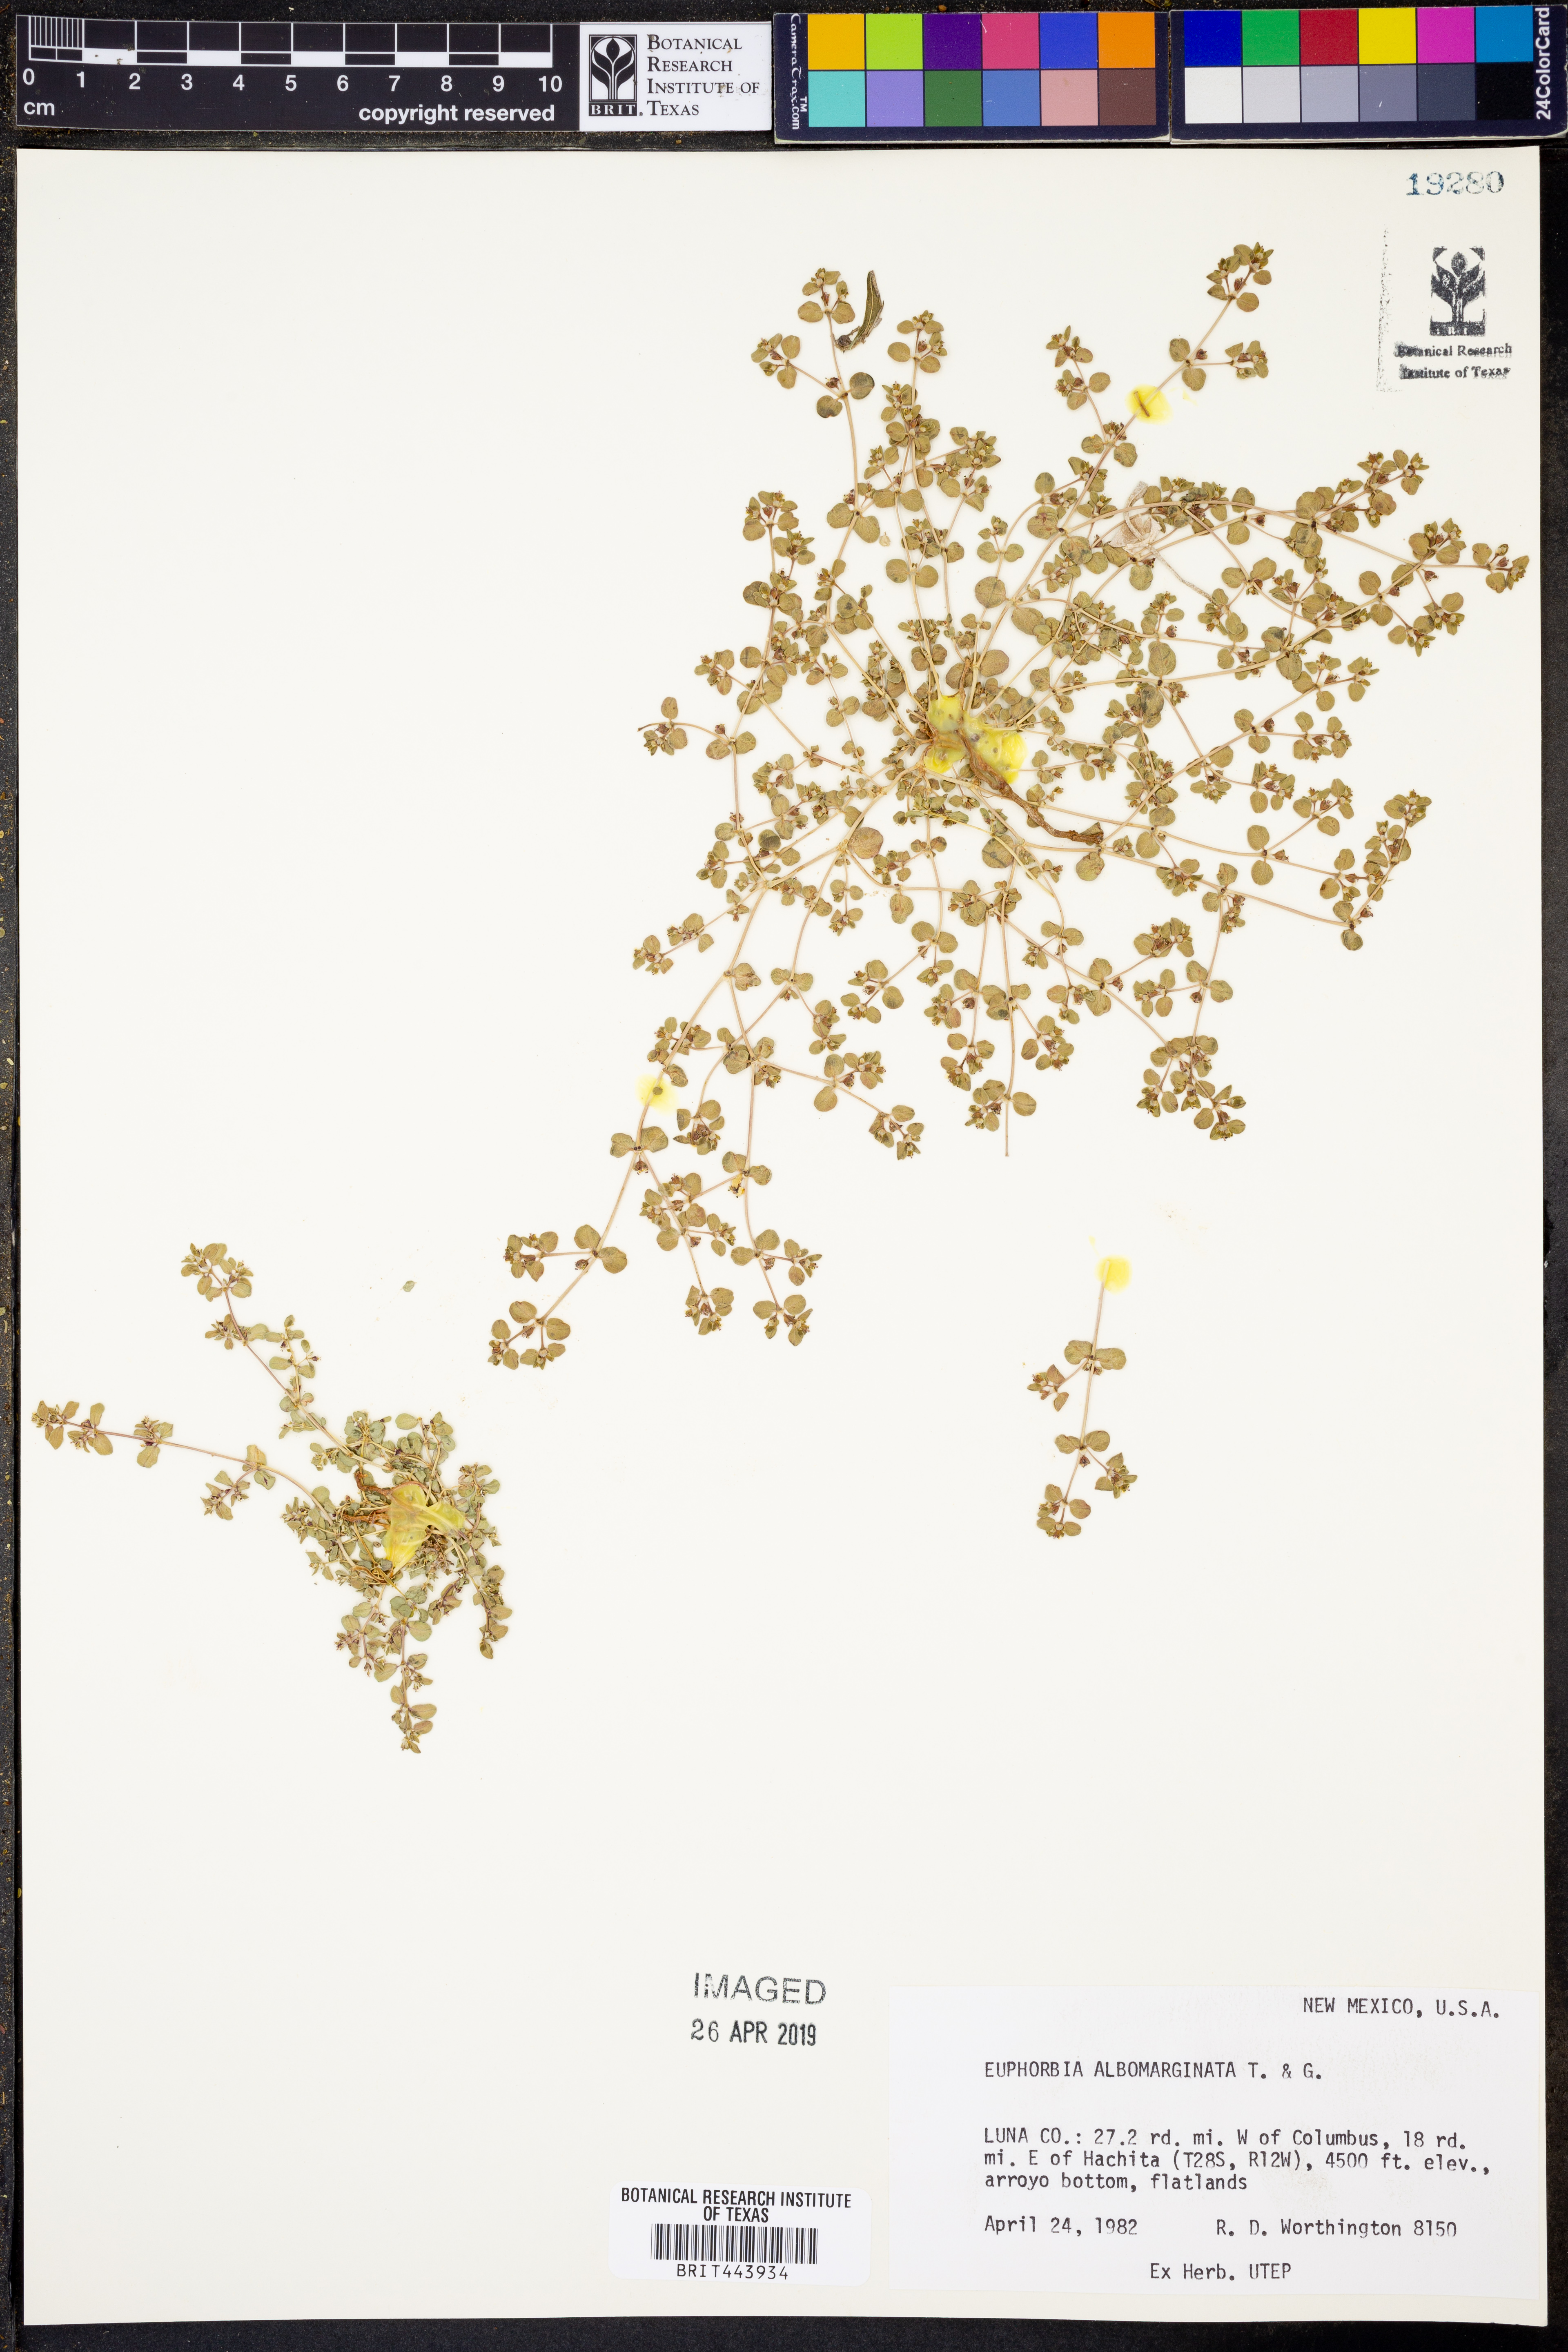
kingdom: Plantae
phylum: Tracheophyta
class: Magnoliopsida
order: Malpighiales
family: Euphorbiaceae
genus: Euphorbia
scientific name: Euphorbia albomarginata
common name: Whitemargin sandmat
